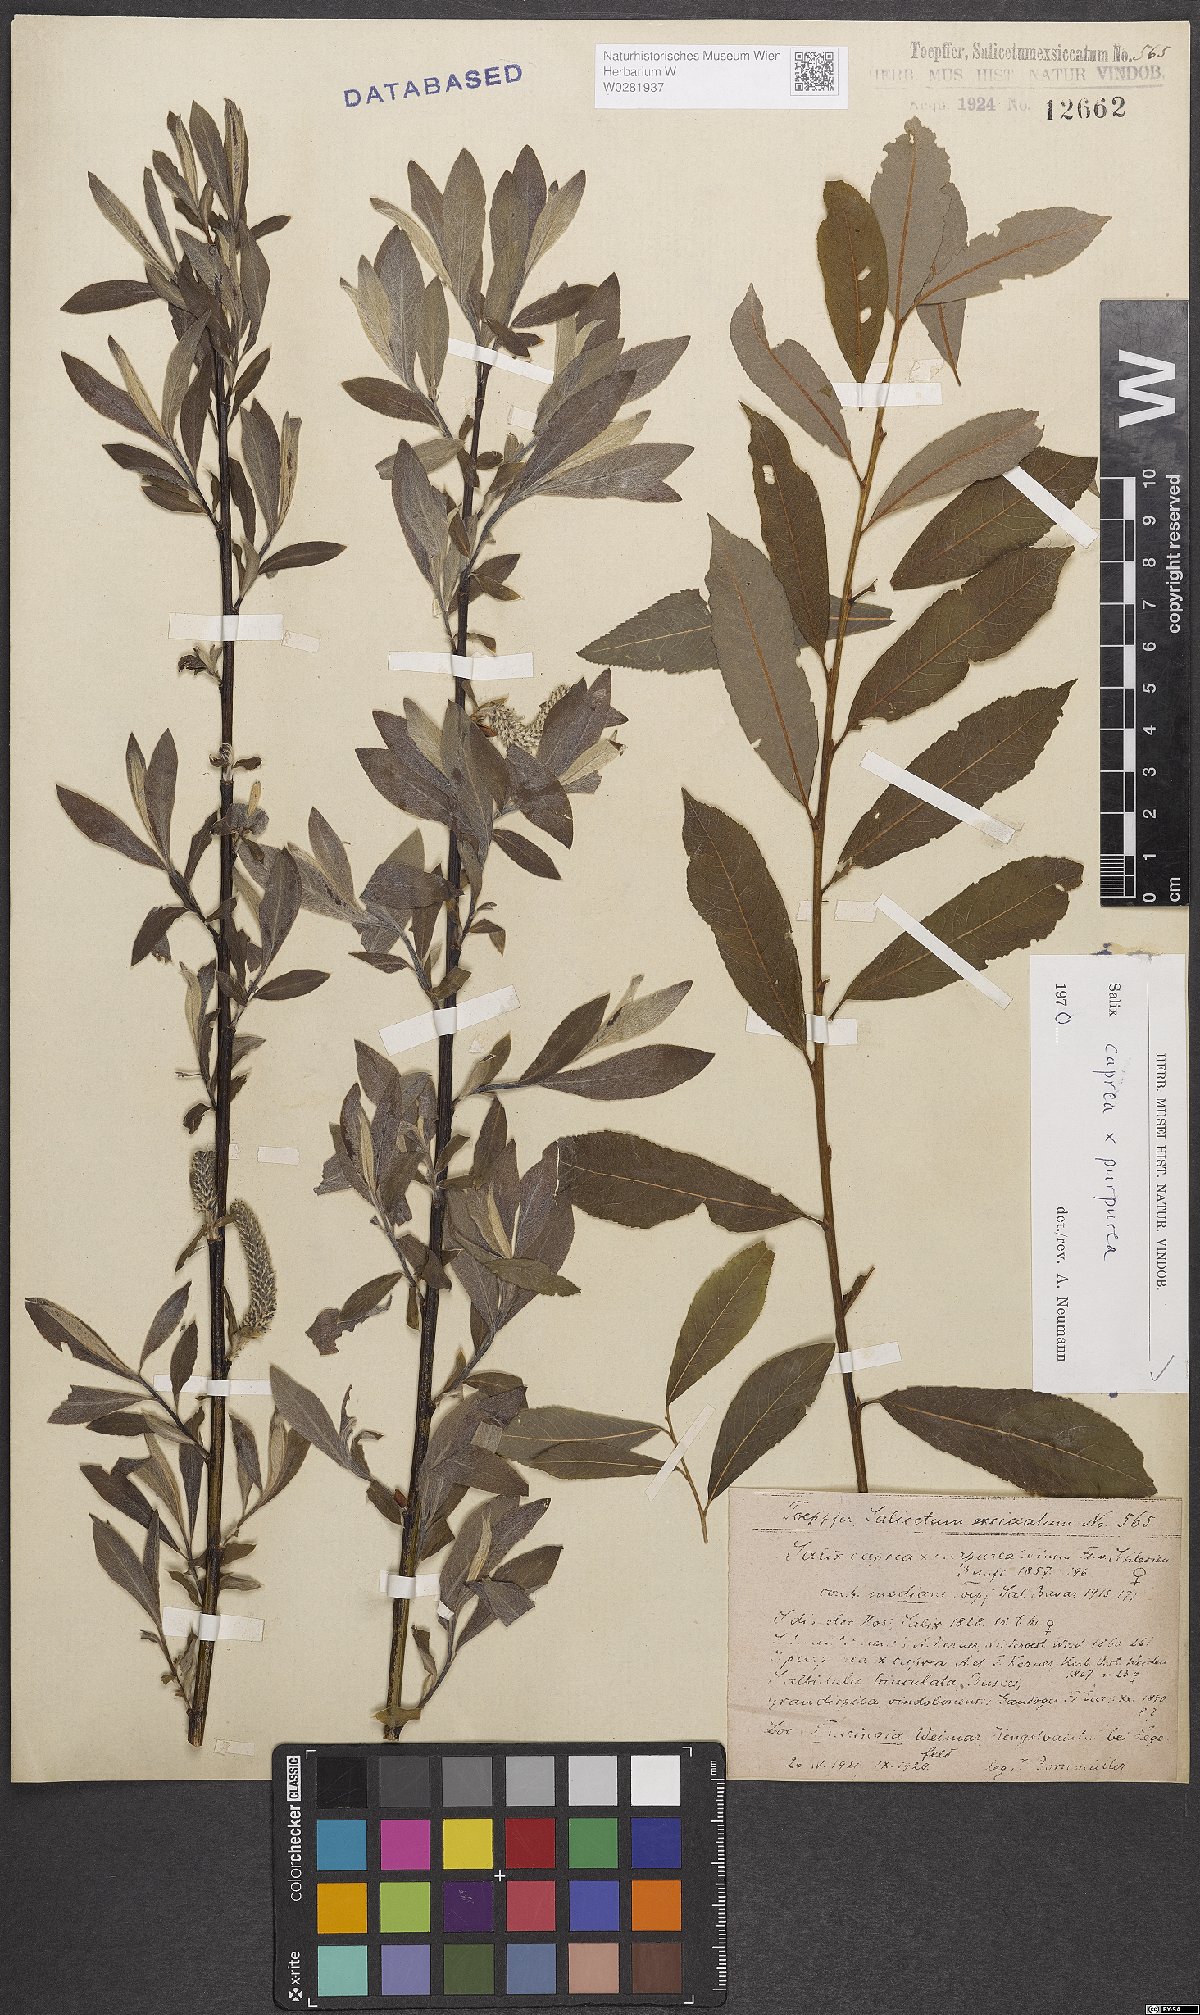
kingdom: Plantae
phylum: Tracheophyta
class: Magnoliopsida
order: Malpighiales
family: Salicaceae
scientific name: Salicaceae
